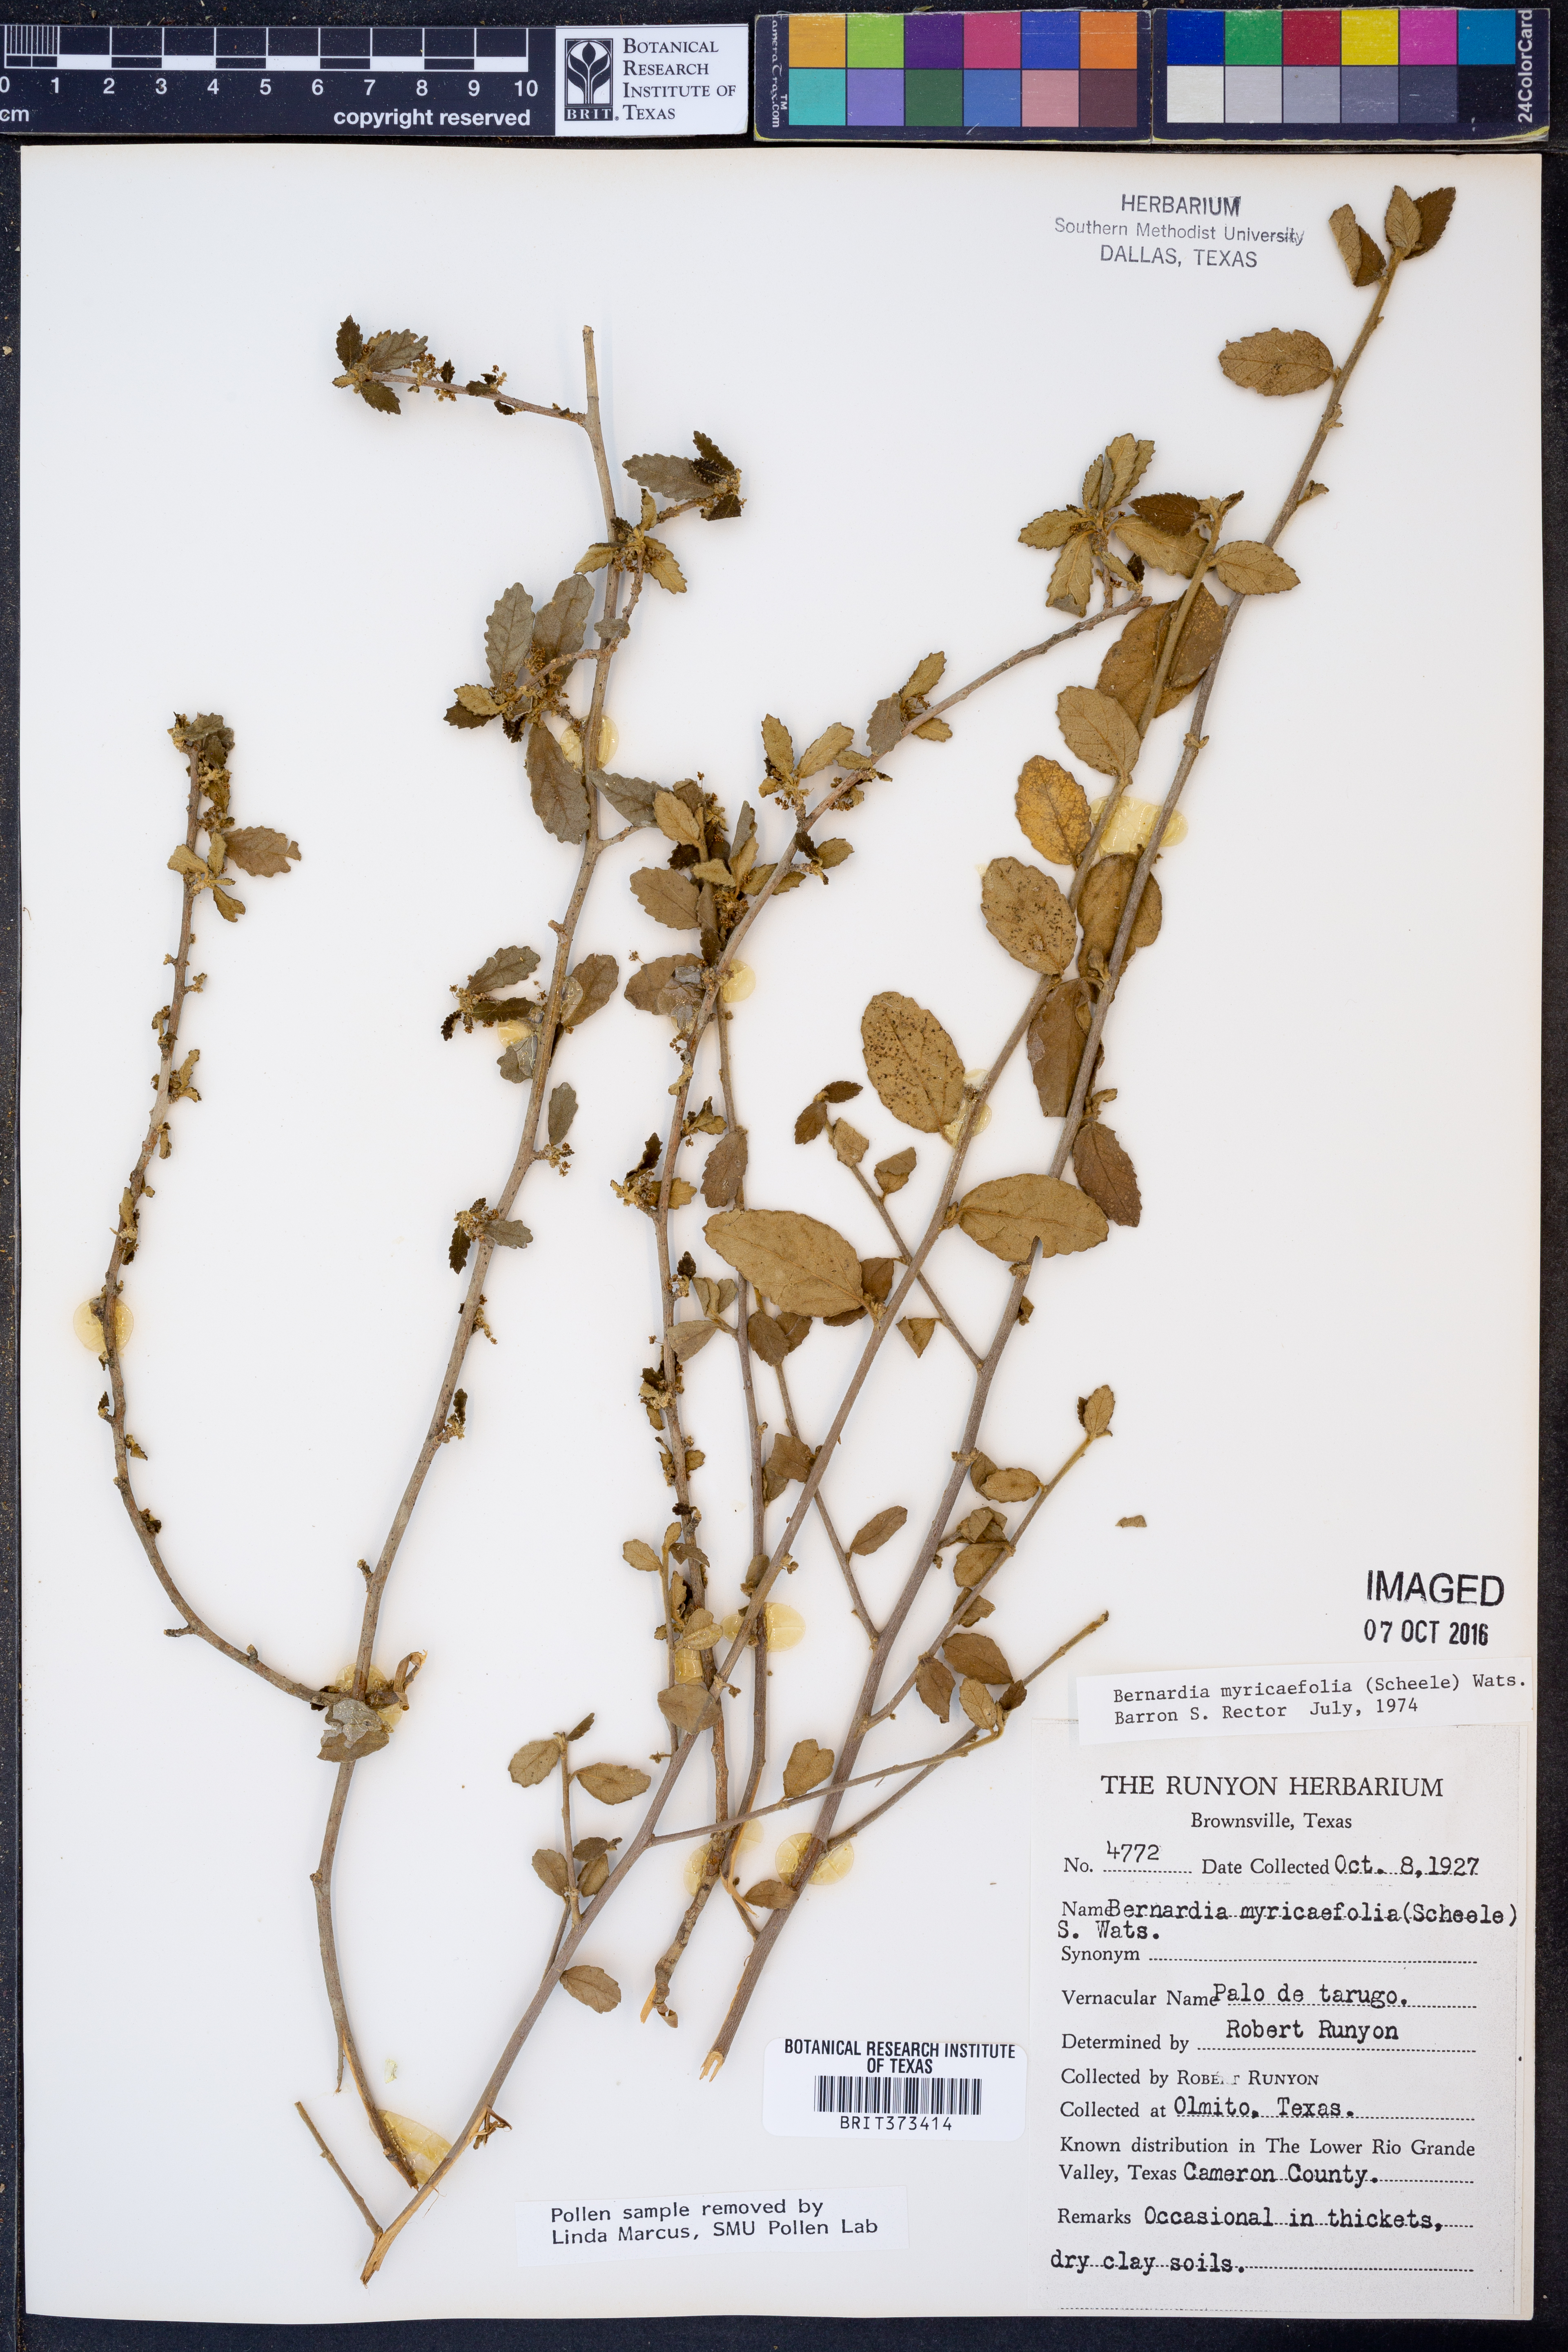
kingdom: Plantae
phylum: Tracheophyta
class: Magnoliopsida
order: Malpighiales
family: Euphorbiaceae
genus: Bernardia
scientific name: Bernardia myricifolia
